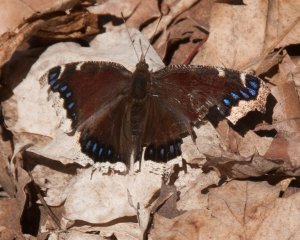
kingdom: Animalia
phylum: Arthropoda
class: Insecta
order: Lepidoptera
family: Nymphalidae
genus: Nymphalis
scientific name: Nymphalis antiopa
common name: Mourning Cloak
